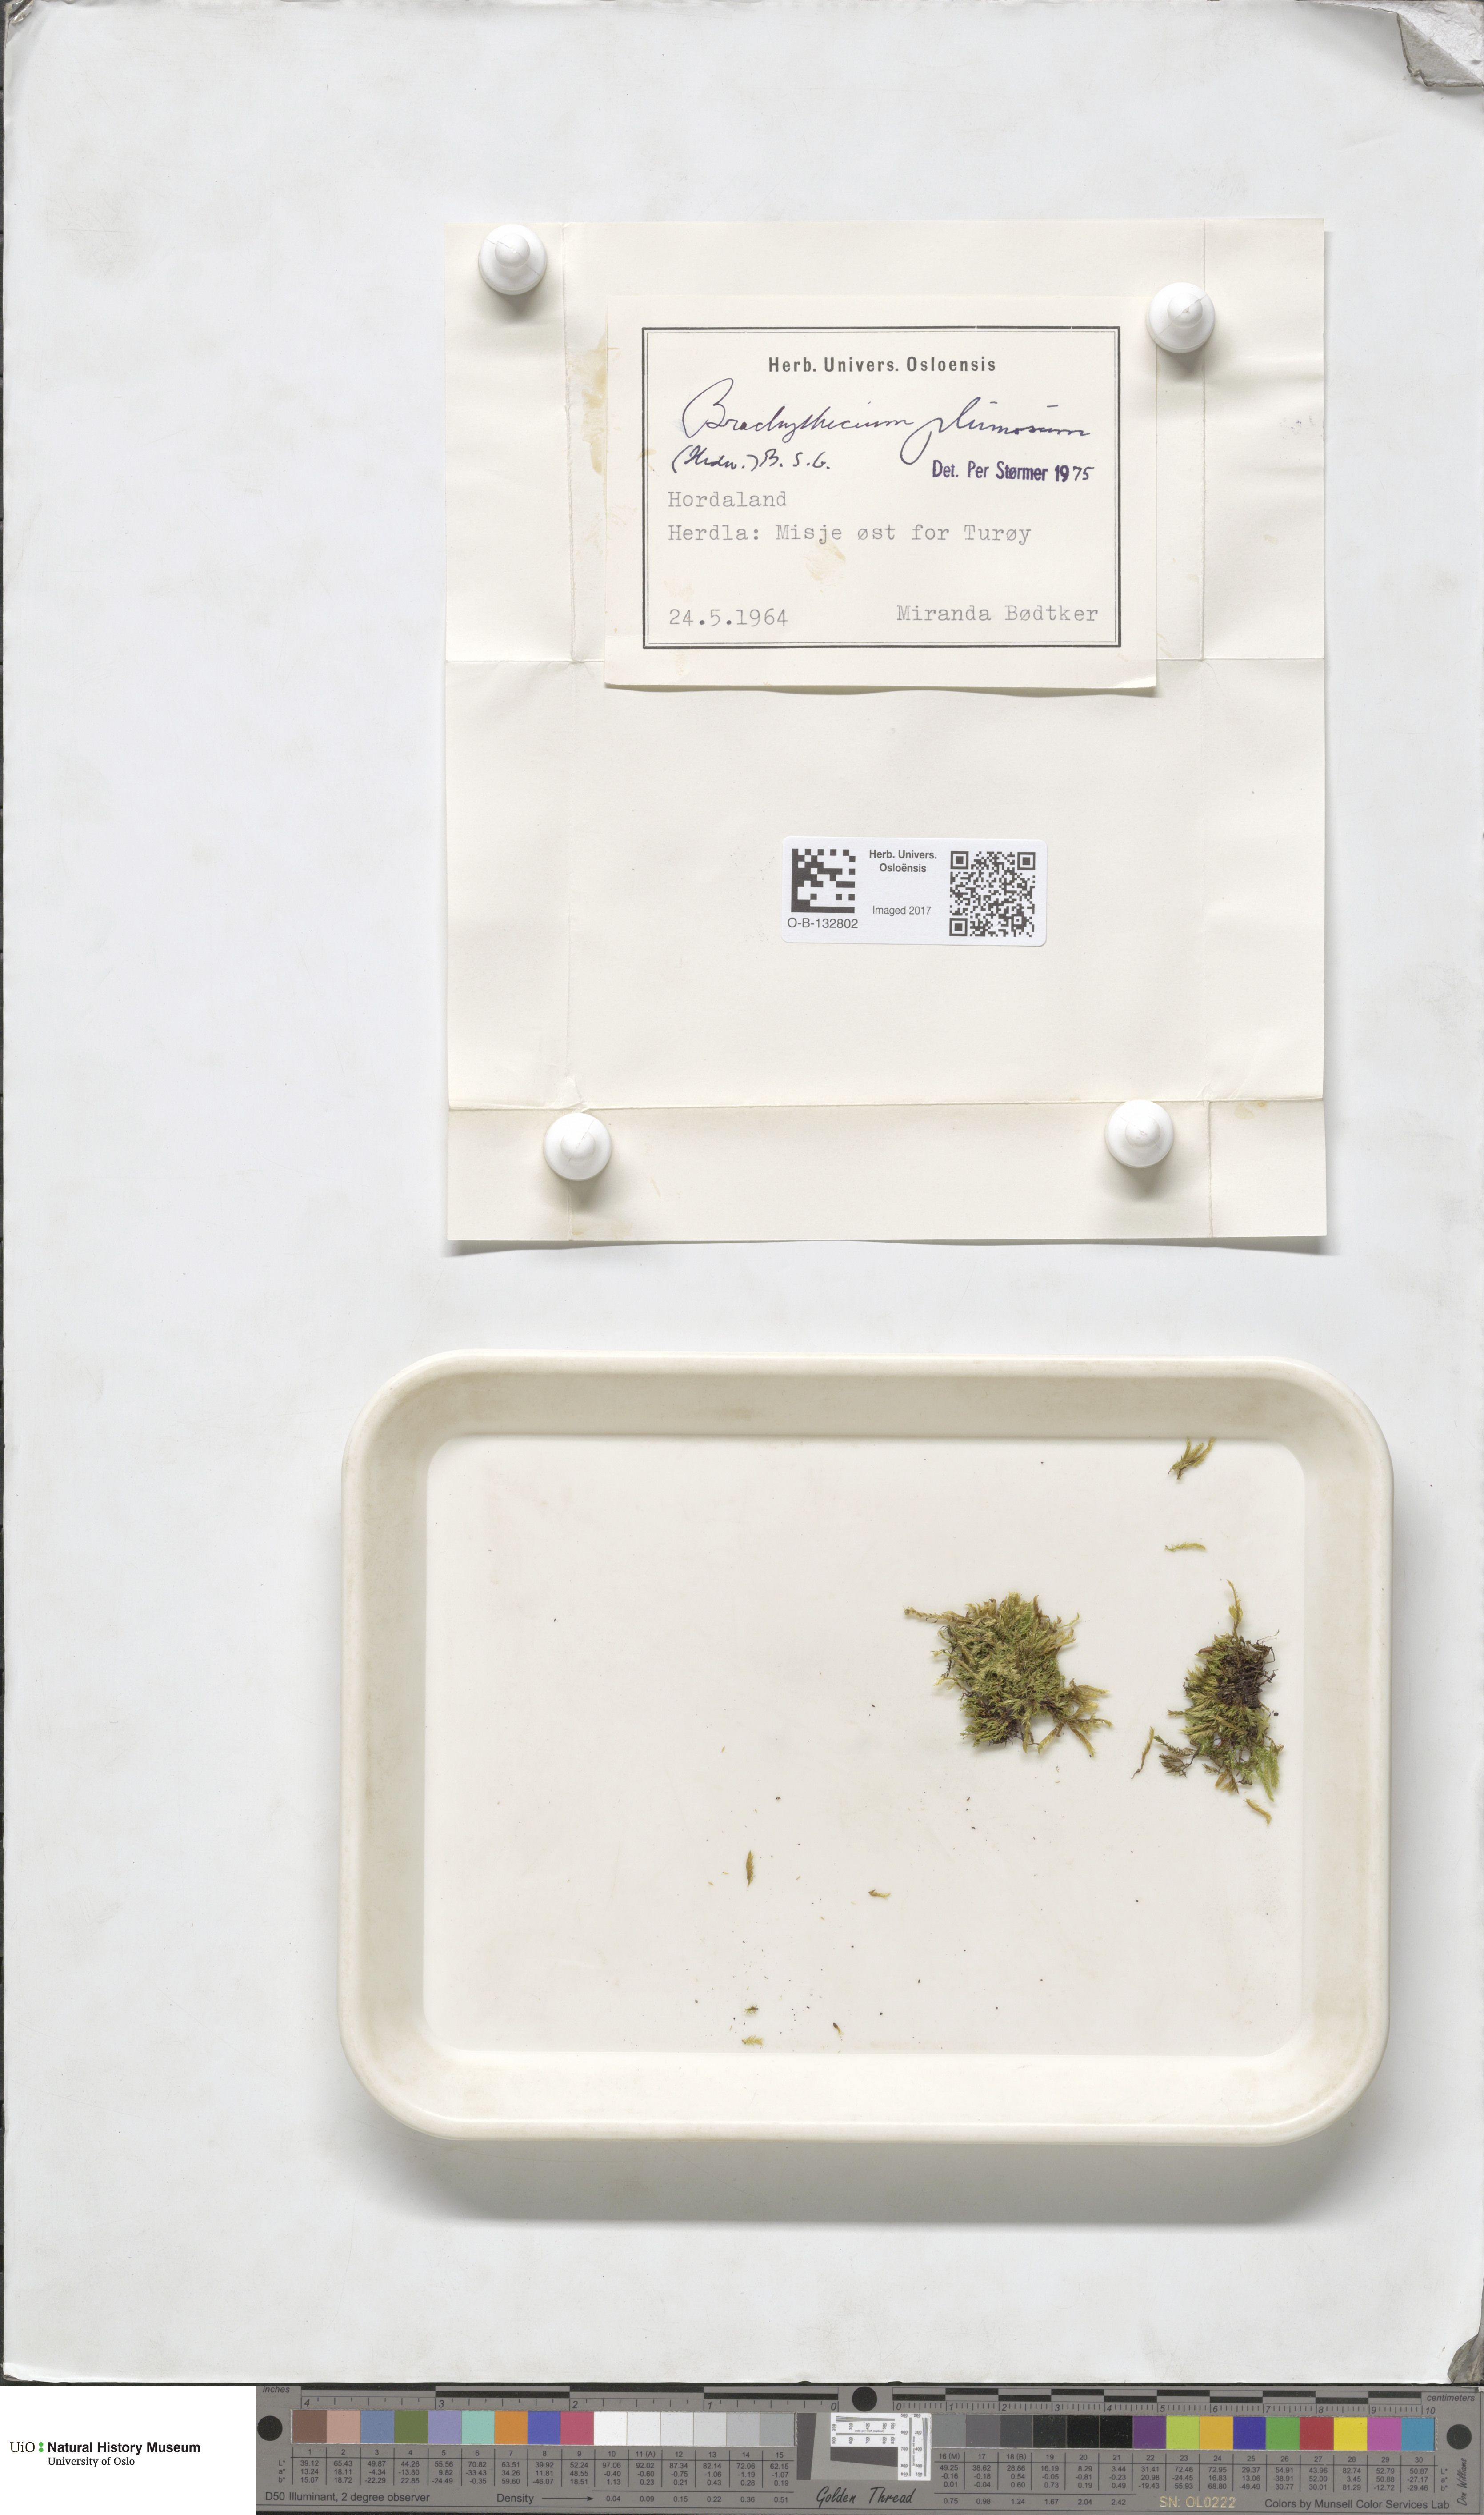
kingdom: Plantae
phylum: Bryophyta
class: Bryopsida
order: Hypnales
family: Brachytheciaceae
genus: Sciuro-hypnum
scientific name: Sciuro-hypnum plumosum
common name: Rusty feather-moss
